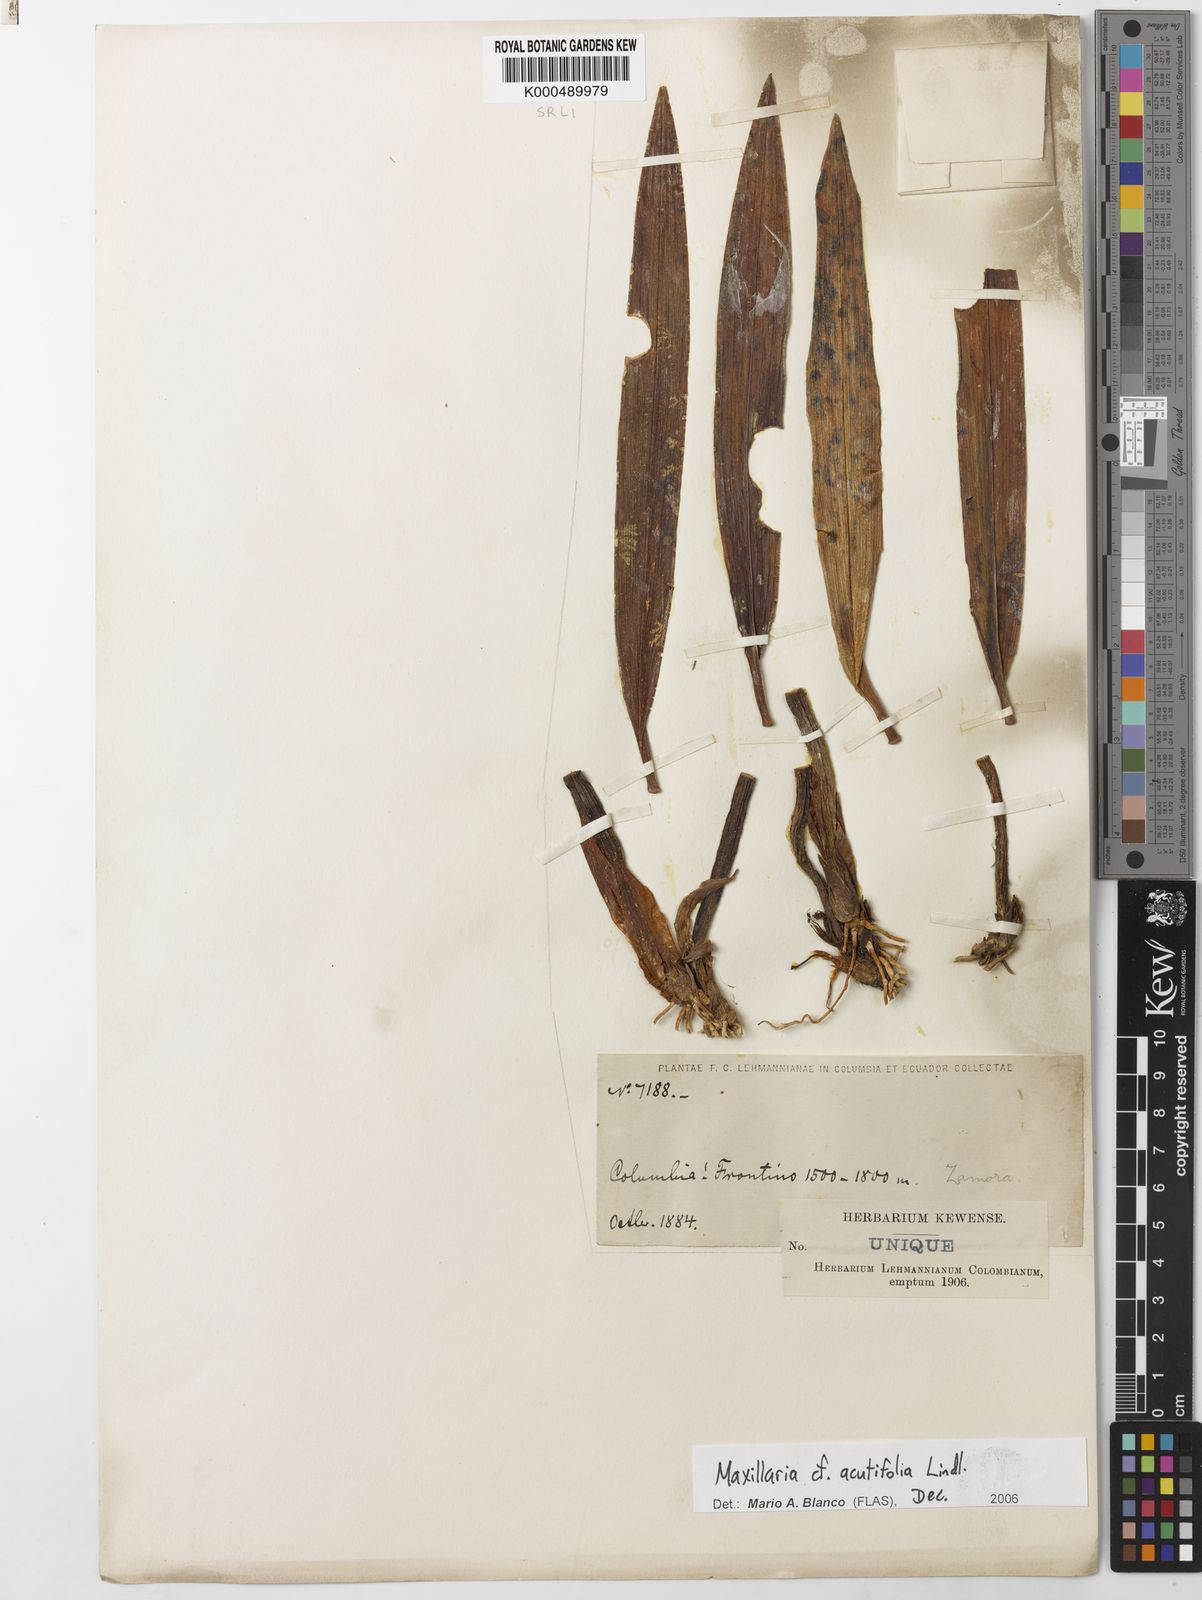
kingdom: Plantae
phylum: Tracheophyta
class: Liliopsida
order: Asparagales
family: Orchidaceae
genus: Maxillaria
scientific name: Maxillaria acutifolia
